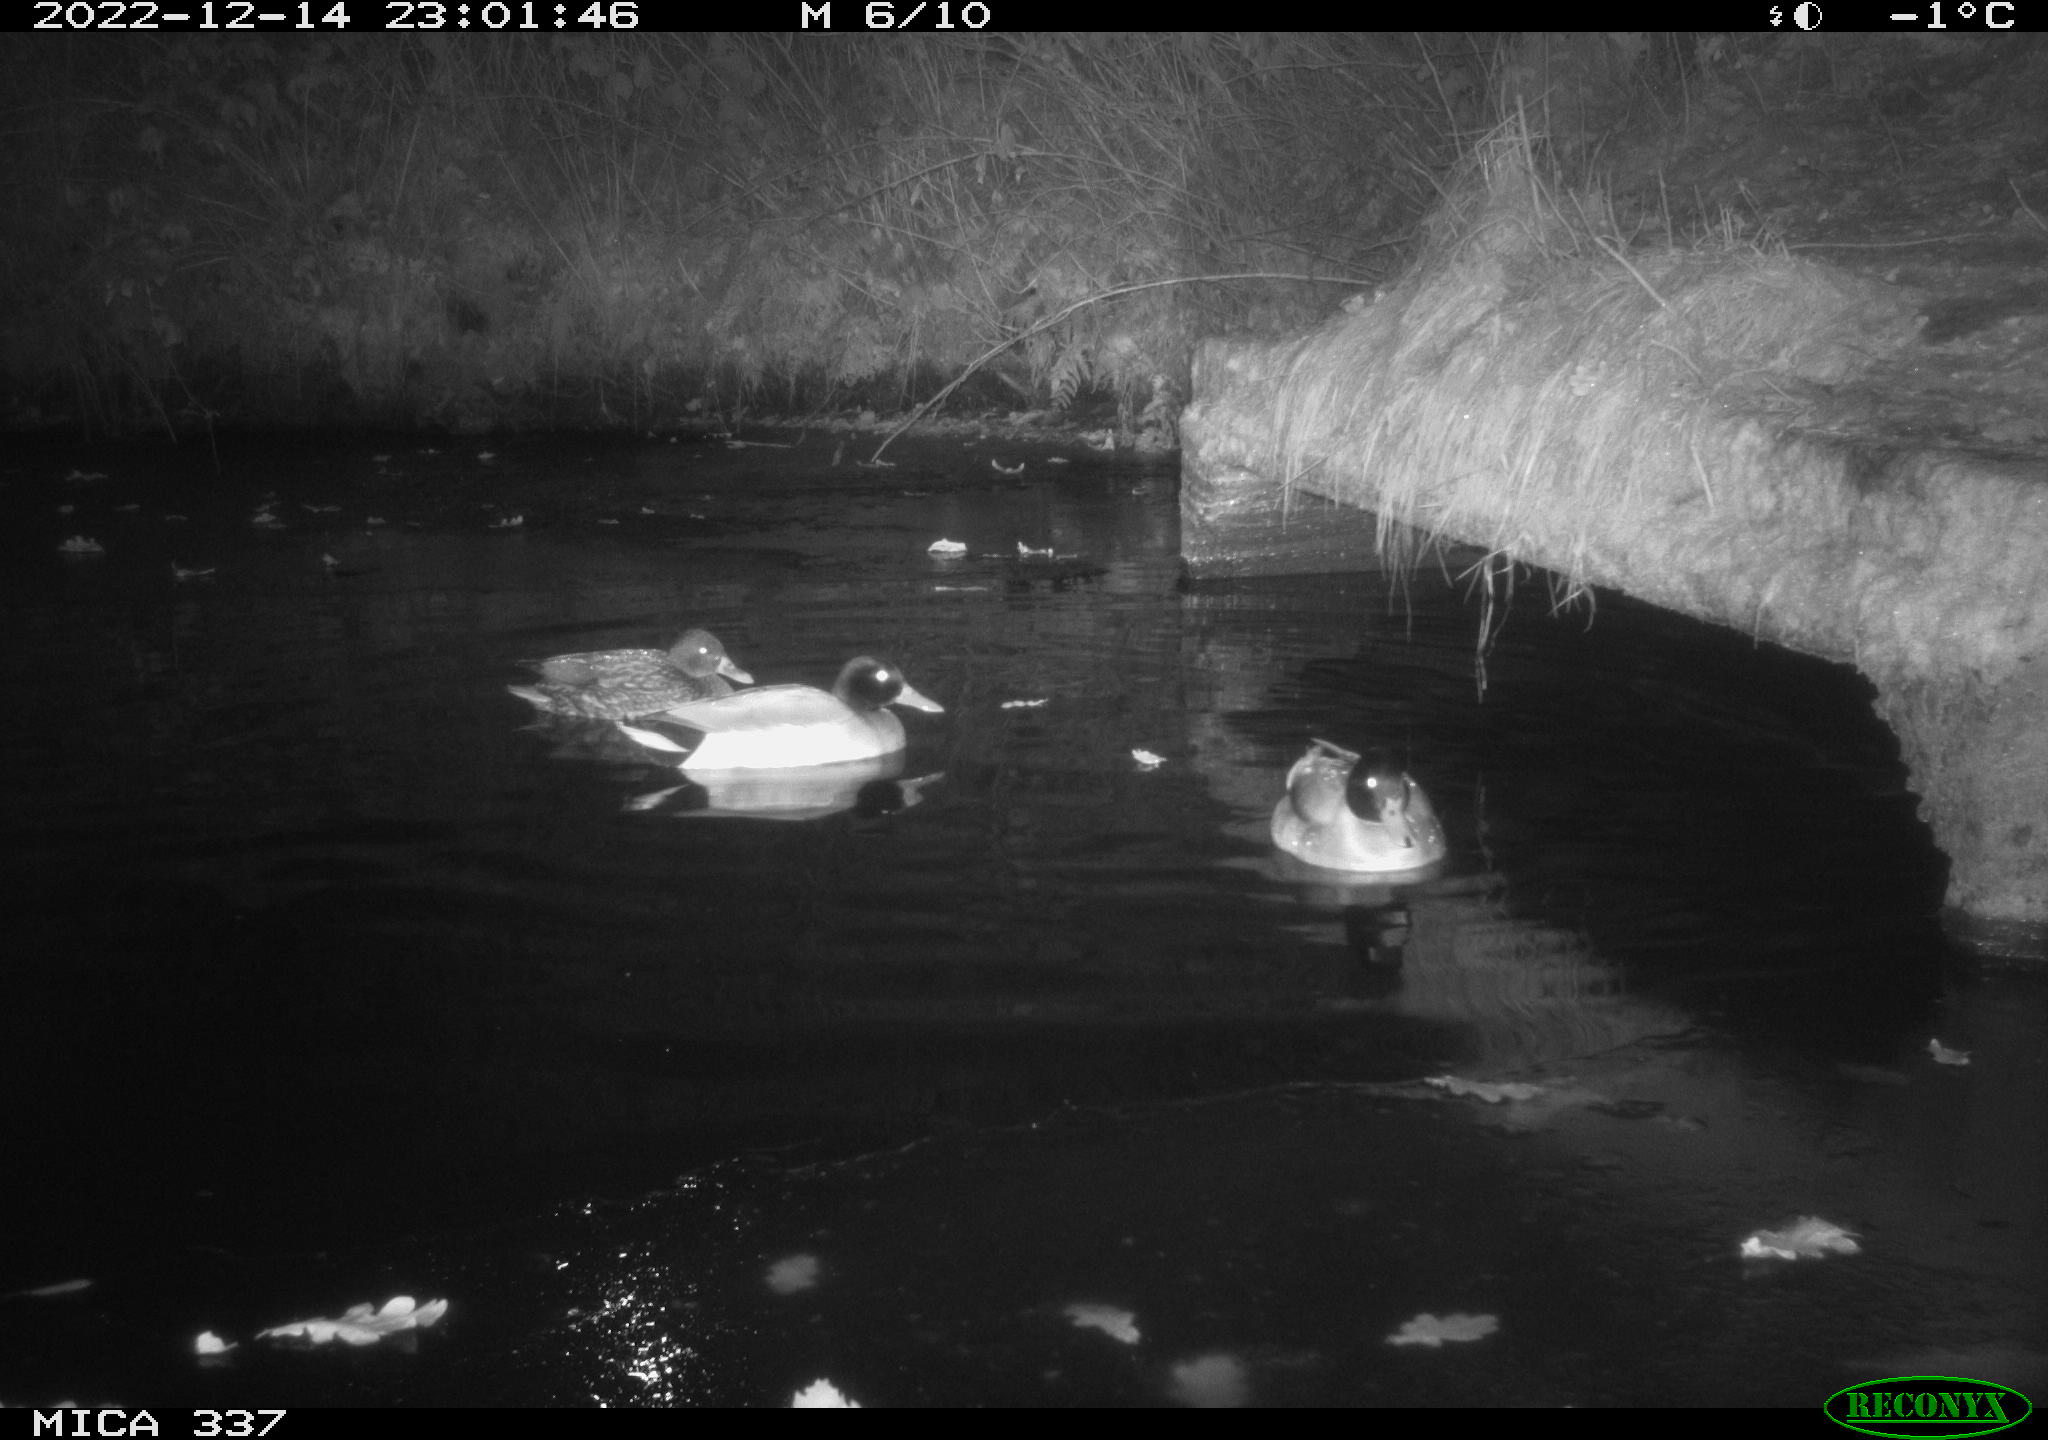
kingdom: Animalia
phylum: Chordata
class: Aves
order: Anseriformes
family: Anatidae
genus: Anas
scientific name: Anas platyrhynchos
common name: Mallard
